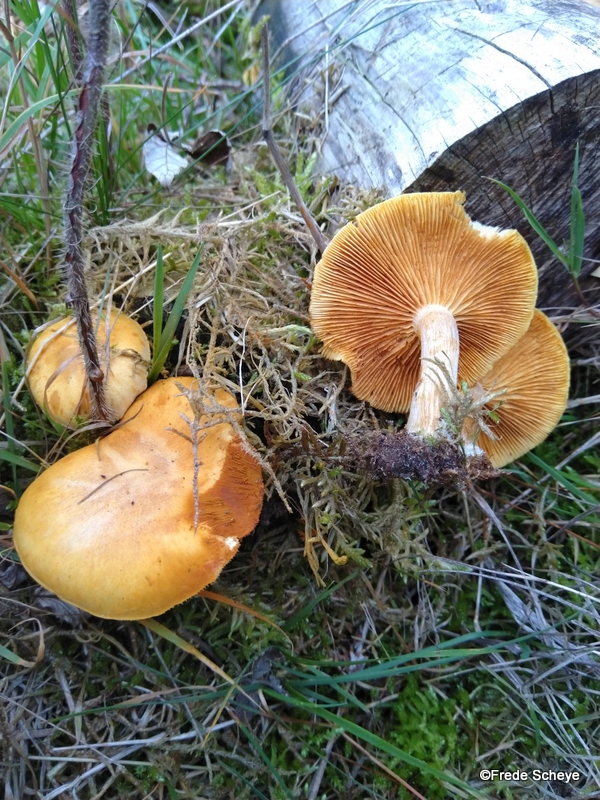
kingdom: Fungi
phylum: Basidiomycota
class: Agaricomycetes
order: Agaricales
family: Hymenogastraceae
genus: Gymnopilus
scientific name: Gymnopilus penetrans
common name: plettet flammehat
